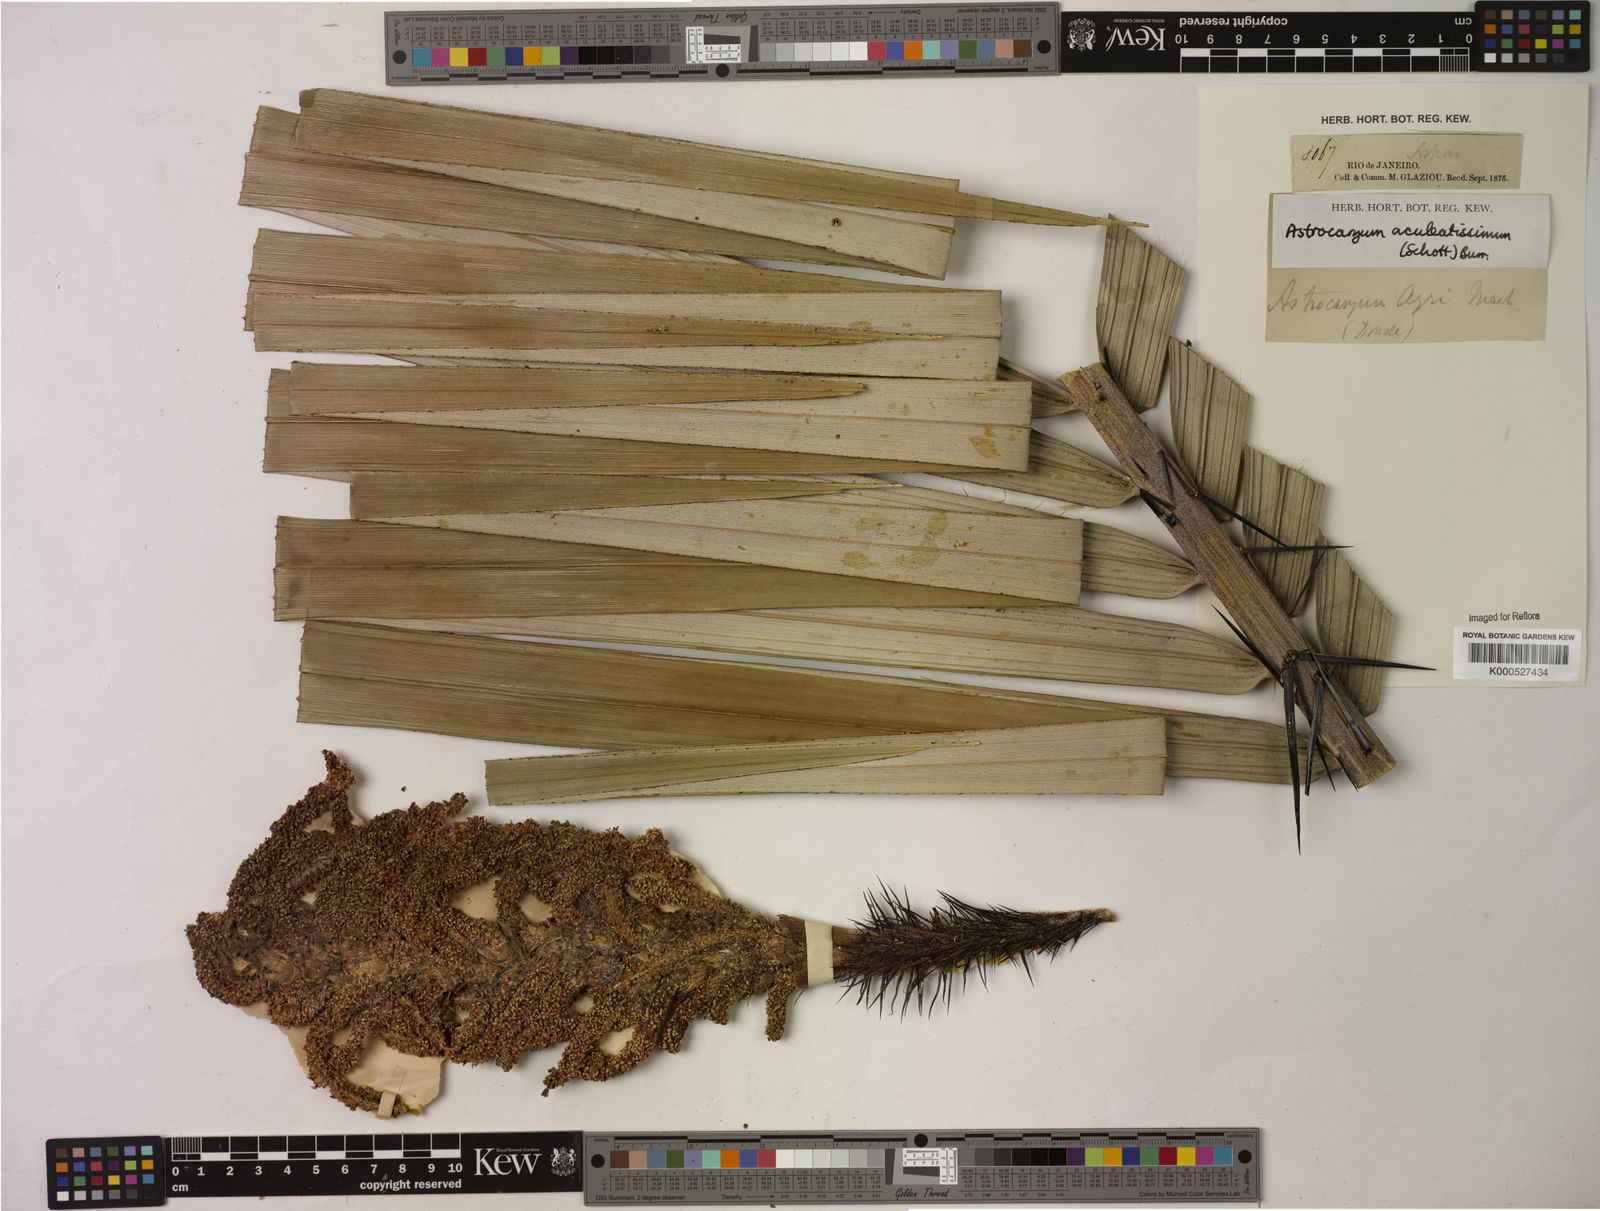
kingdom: Plantae
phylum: Tracheophyta
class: Liliopsida
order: Arecales
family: Arecaceae
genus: Astrocaryum
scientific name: Astrocaryum aculeatissimum
